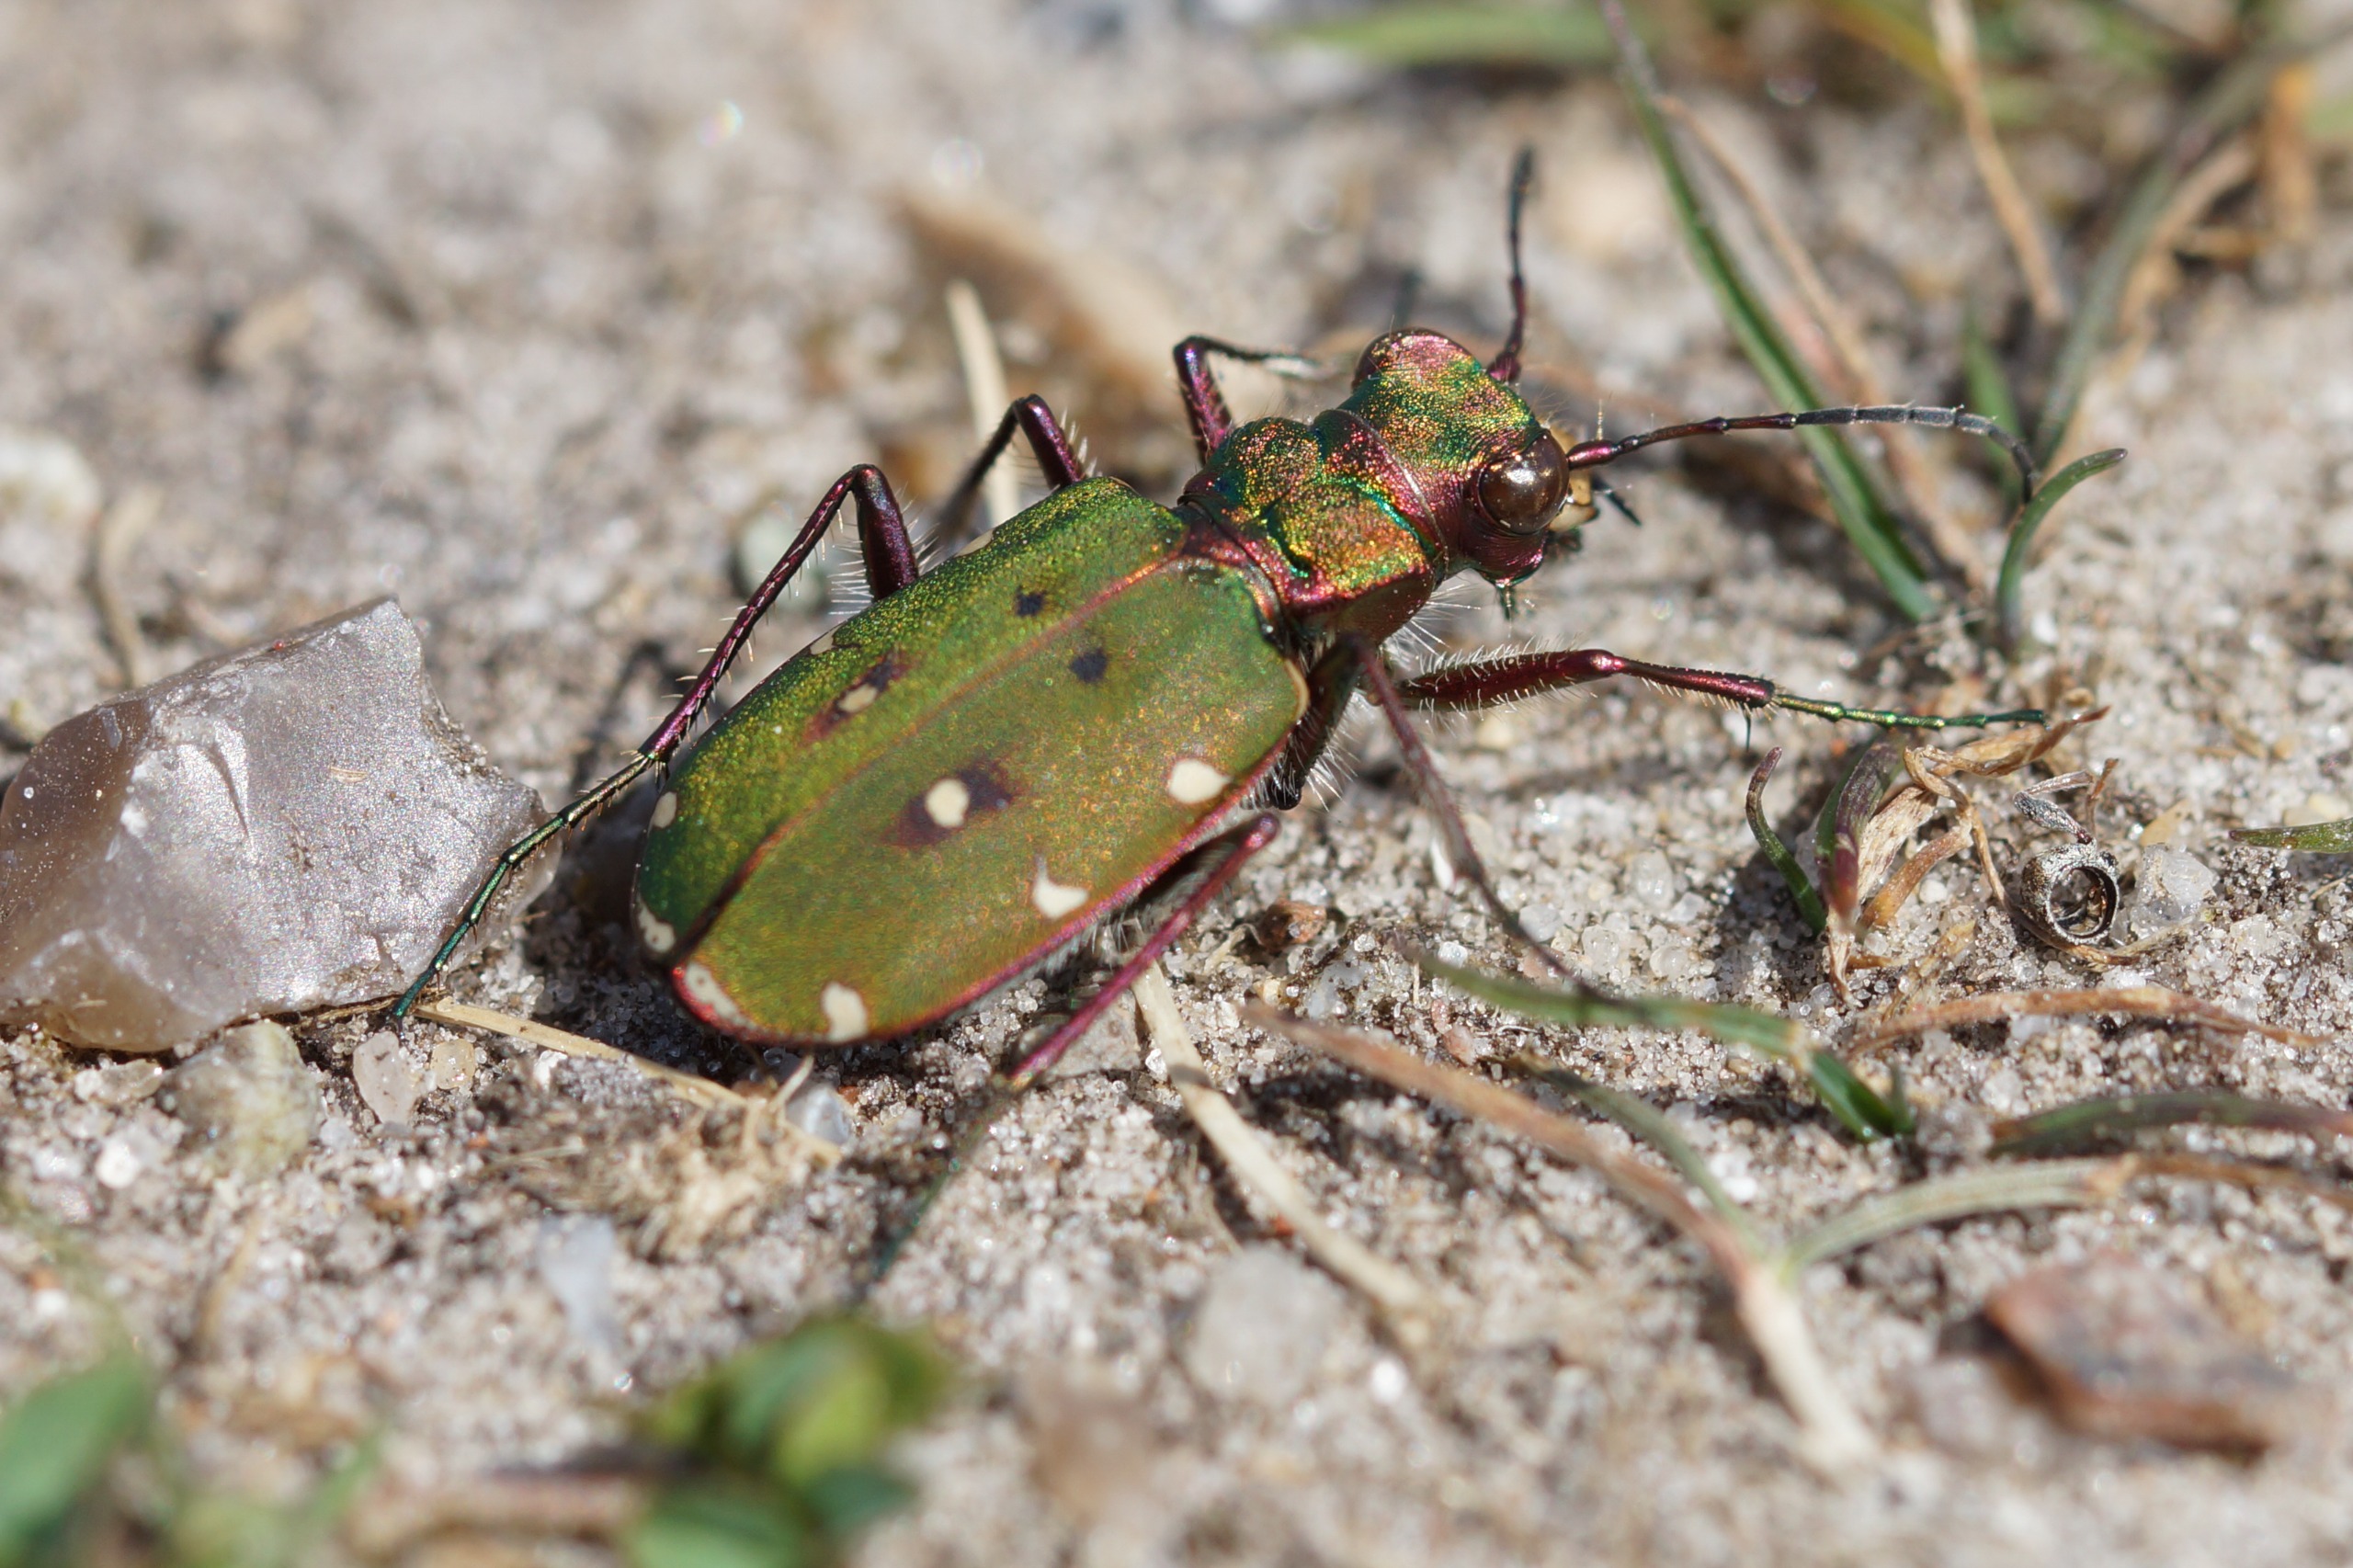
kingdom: Animalia
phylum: Arthropoda
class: Insecta
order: Coleoptera
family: Carabidae
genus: Cicindela
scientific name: Cicindela campestris
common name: Grøn sandspringer
